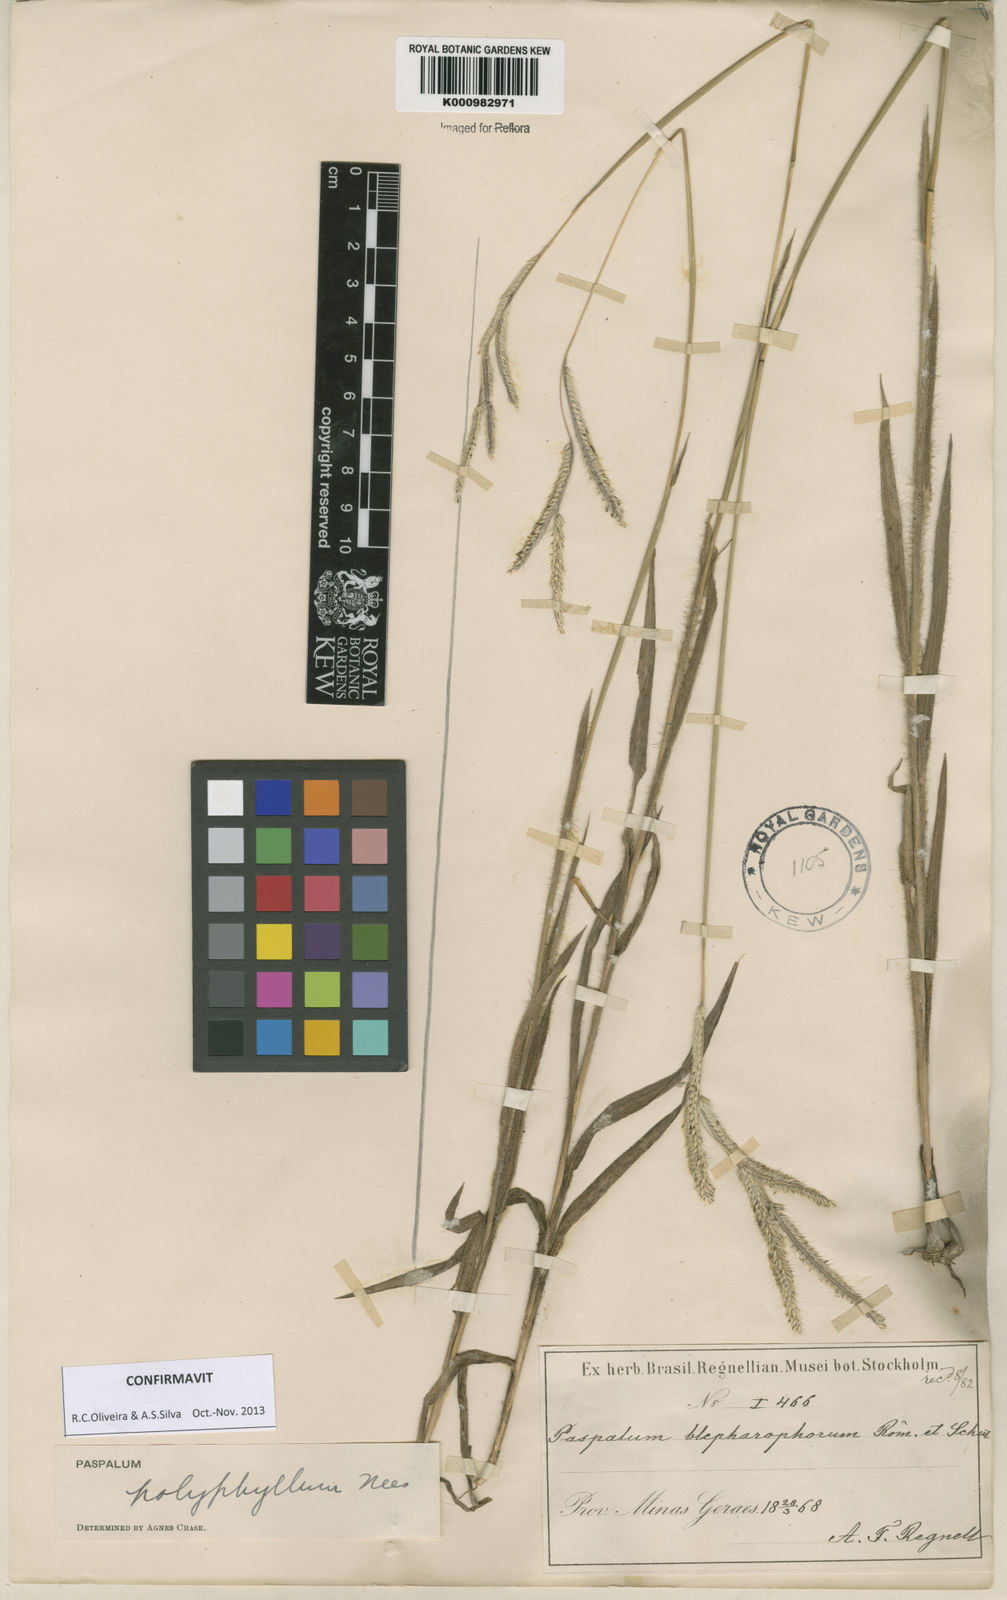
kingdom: Plantae
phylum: Tracheophyta
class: Liliopsida
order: Poales
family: Poaceae
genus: Paspalum
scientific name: Paspalum
